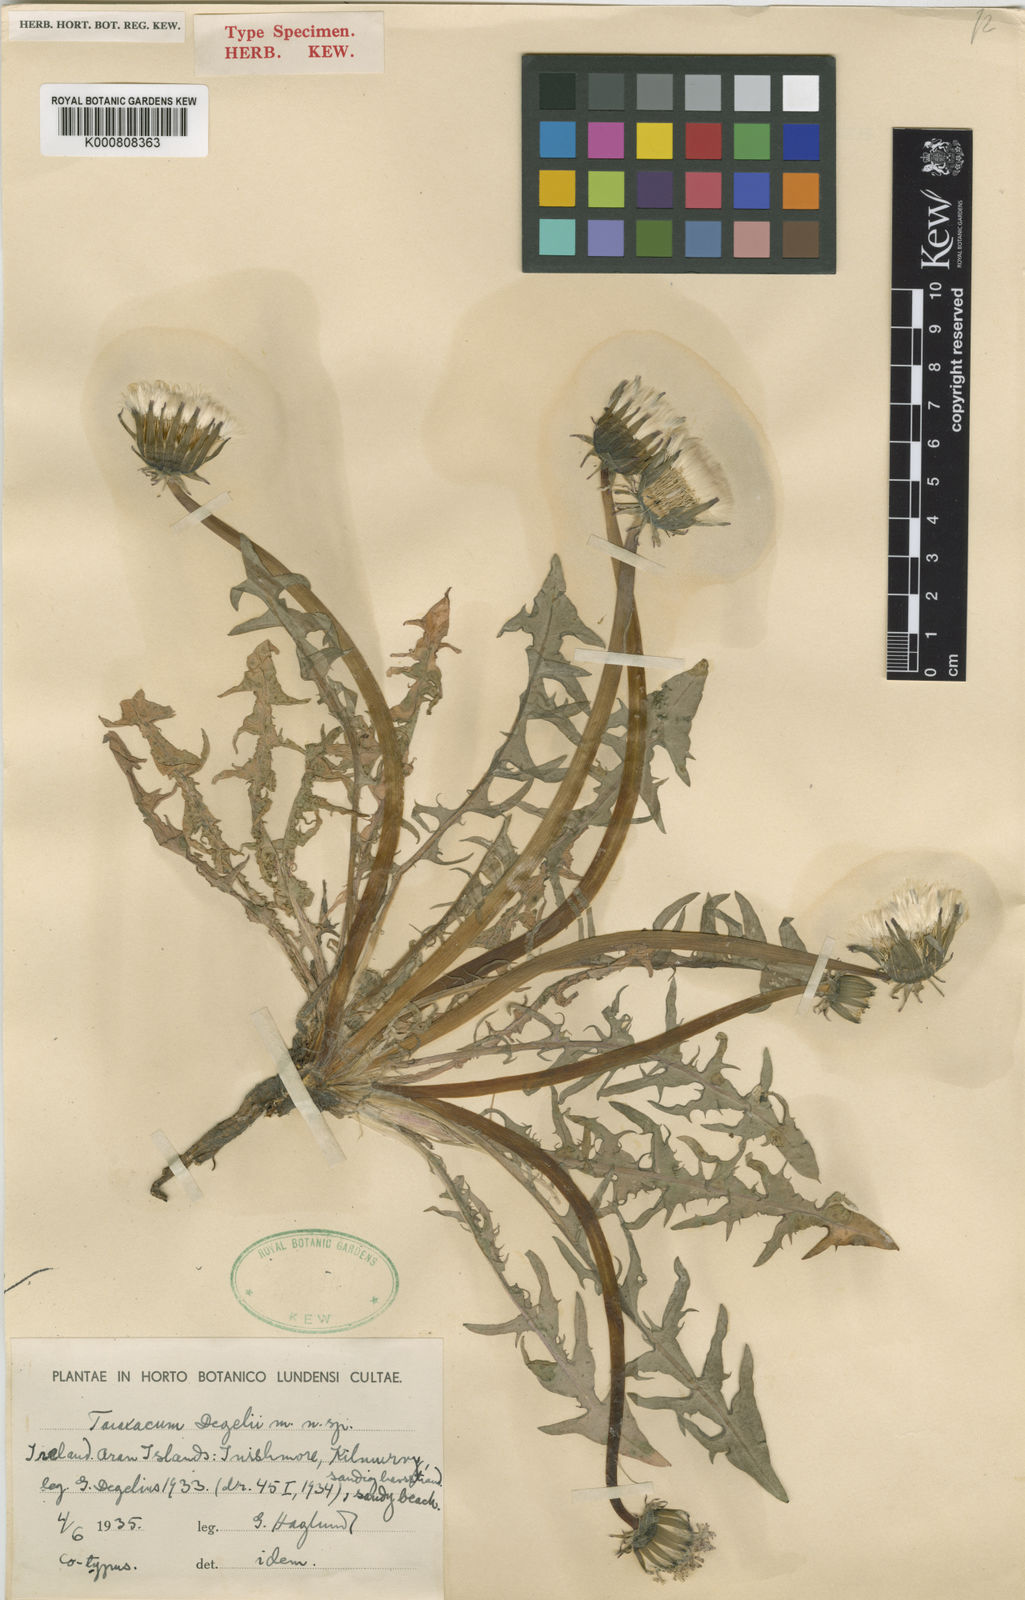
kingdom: Plantae
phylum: Tracheophyta
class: Magnoliopsida
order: Asterales
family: Asteraceae
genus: Taraxacum
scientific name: Taraxacum degelii
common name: Degelius's dandelion
